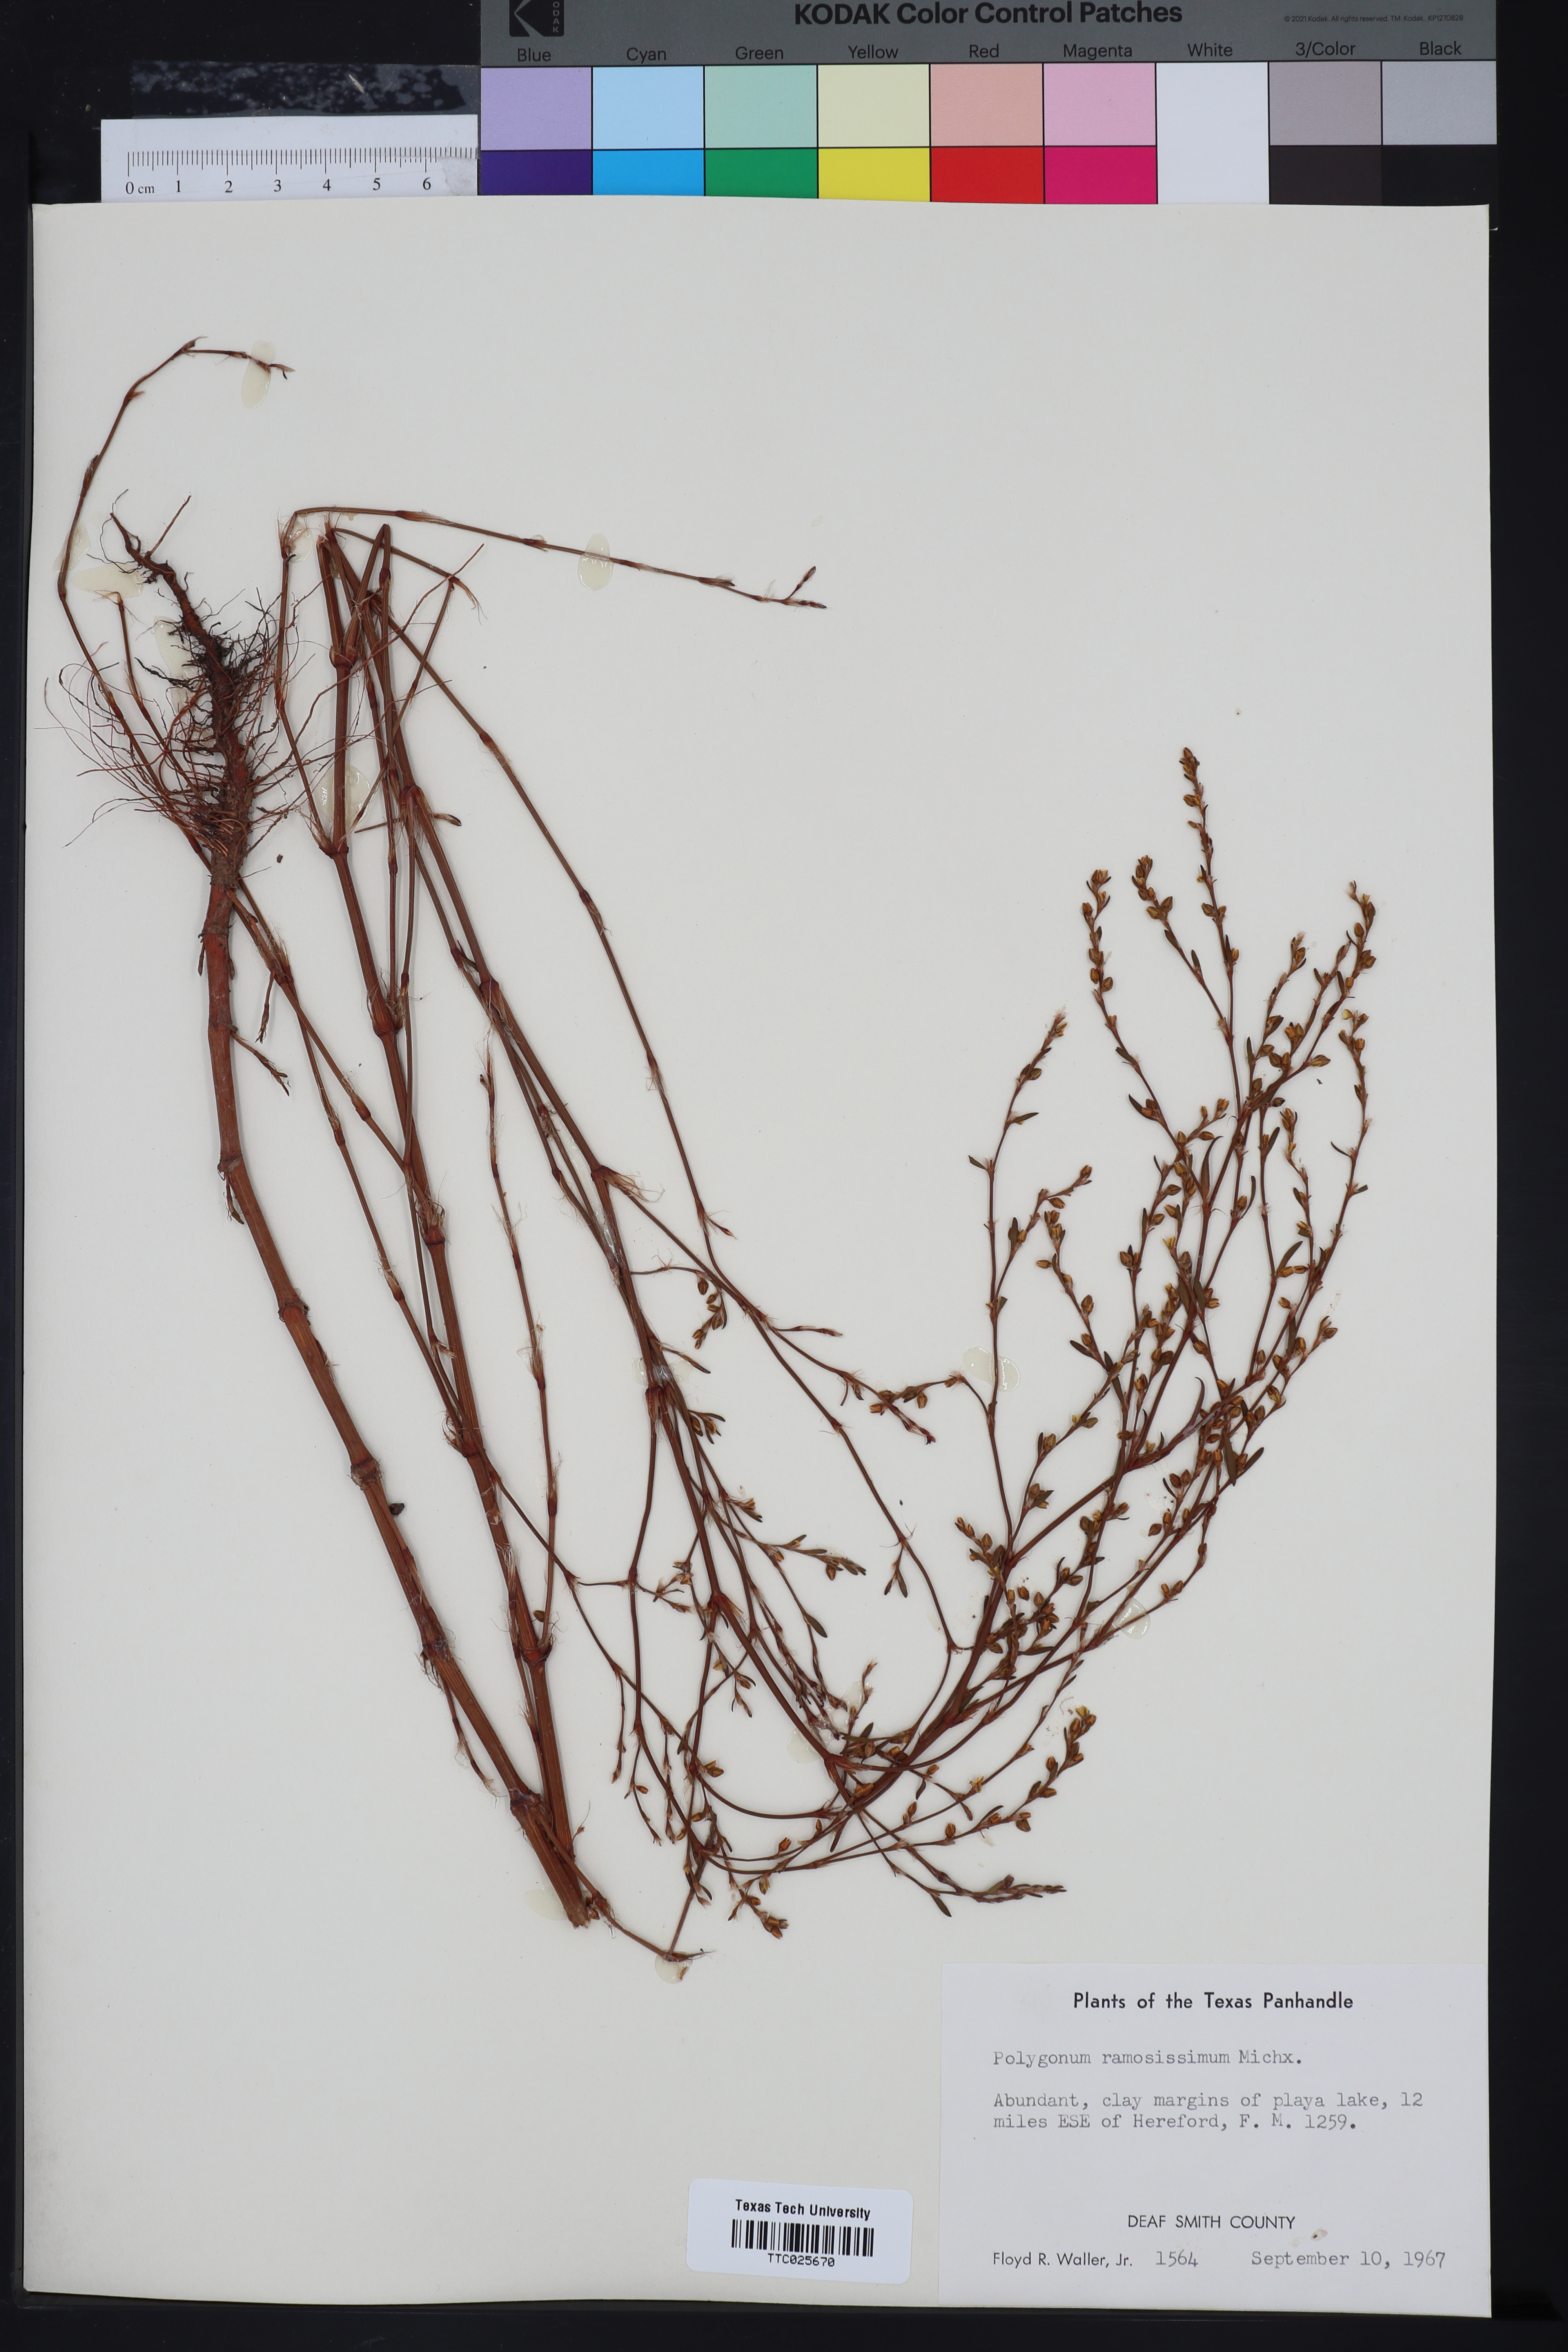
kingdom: Plantae
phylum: Tracheophyta
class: Magnoliopsida
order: Caryophyllales
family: Polygonaceae
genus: Polygonum
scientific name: Polygonum ramosissimum
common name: Bushy knotweed
